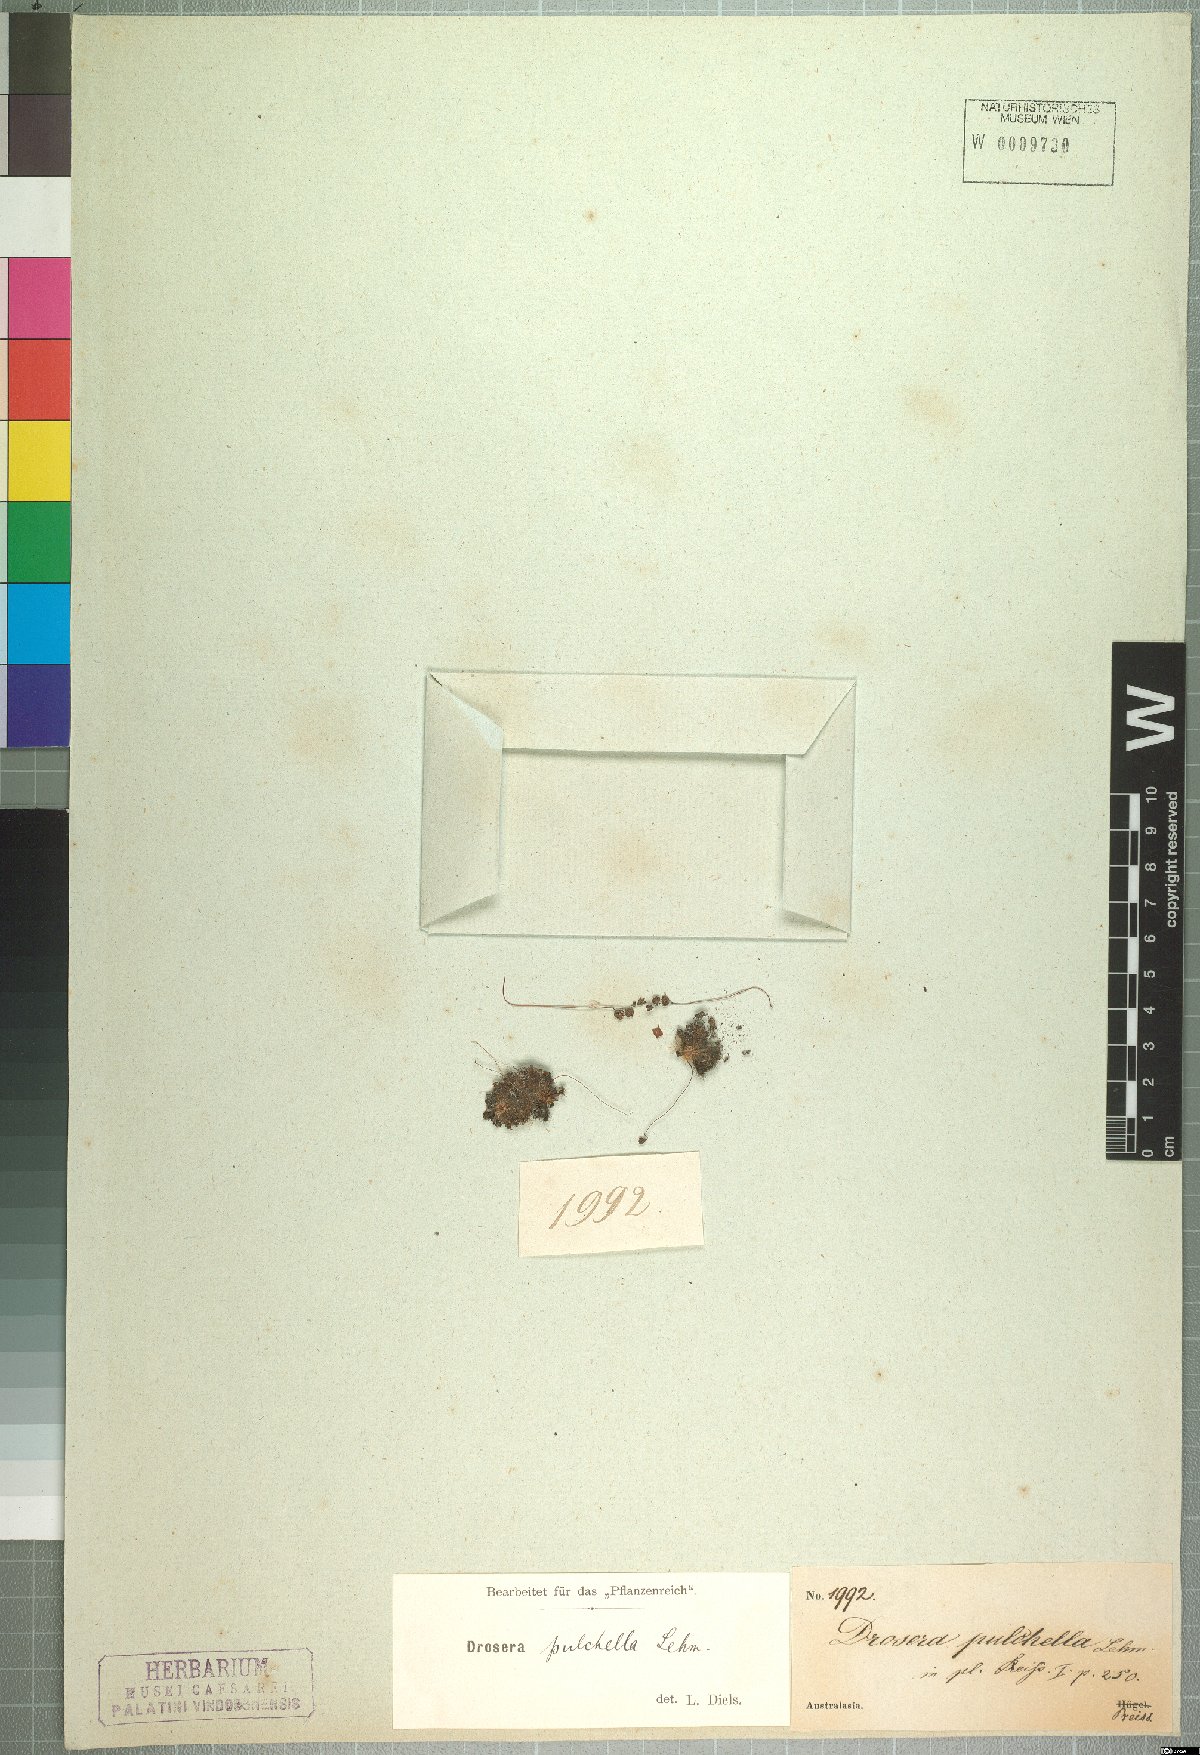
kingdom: Plantae
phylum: Tracheophyta
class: Magnoliopsida
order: Caryophyllales
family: Droseraceae
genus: Drosera
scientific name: Drosera pulchella
